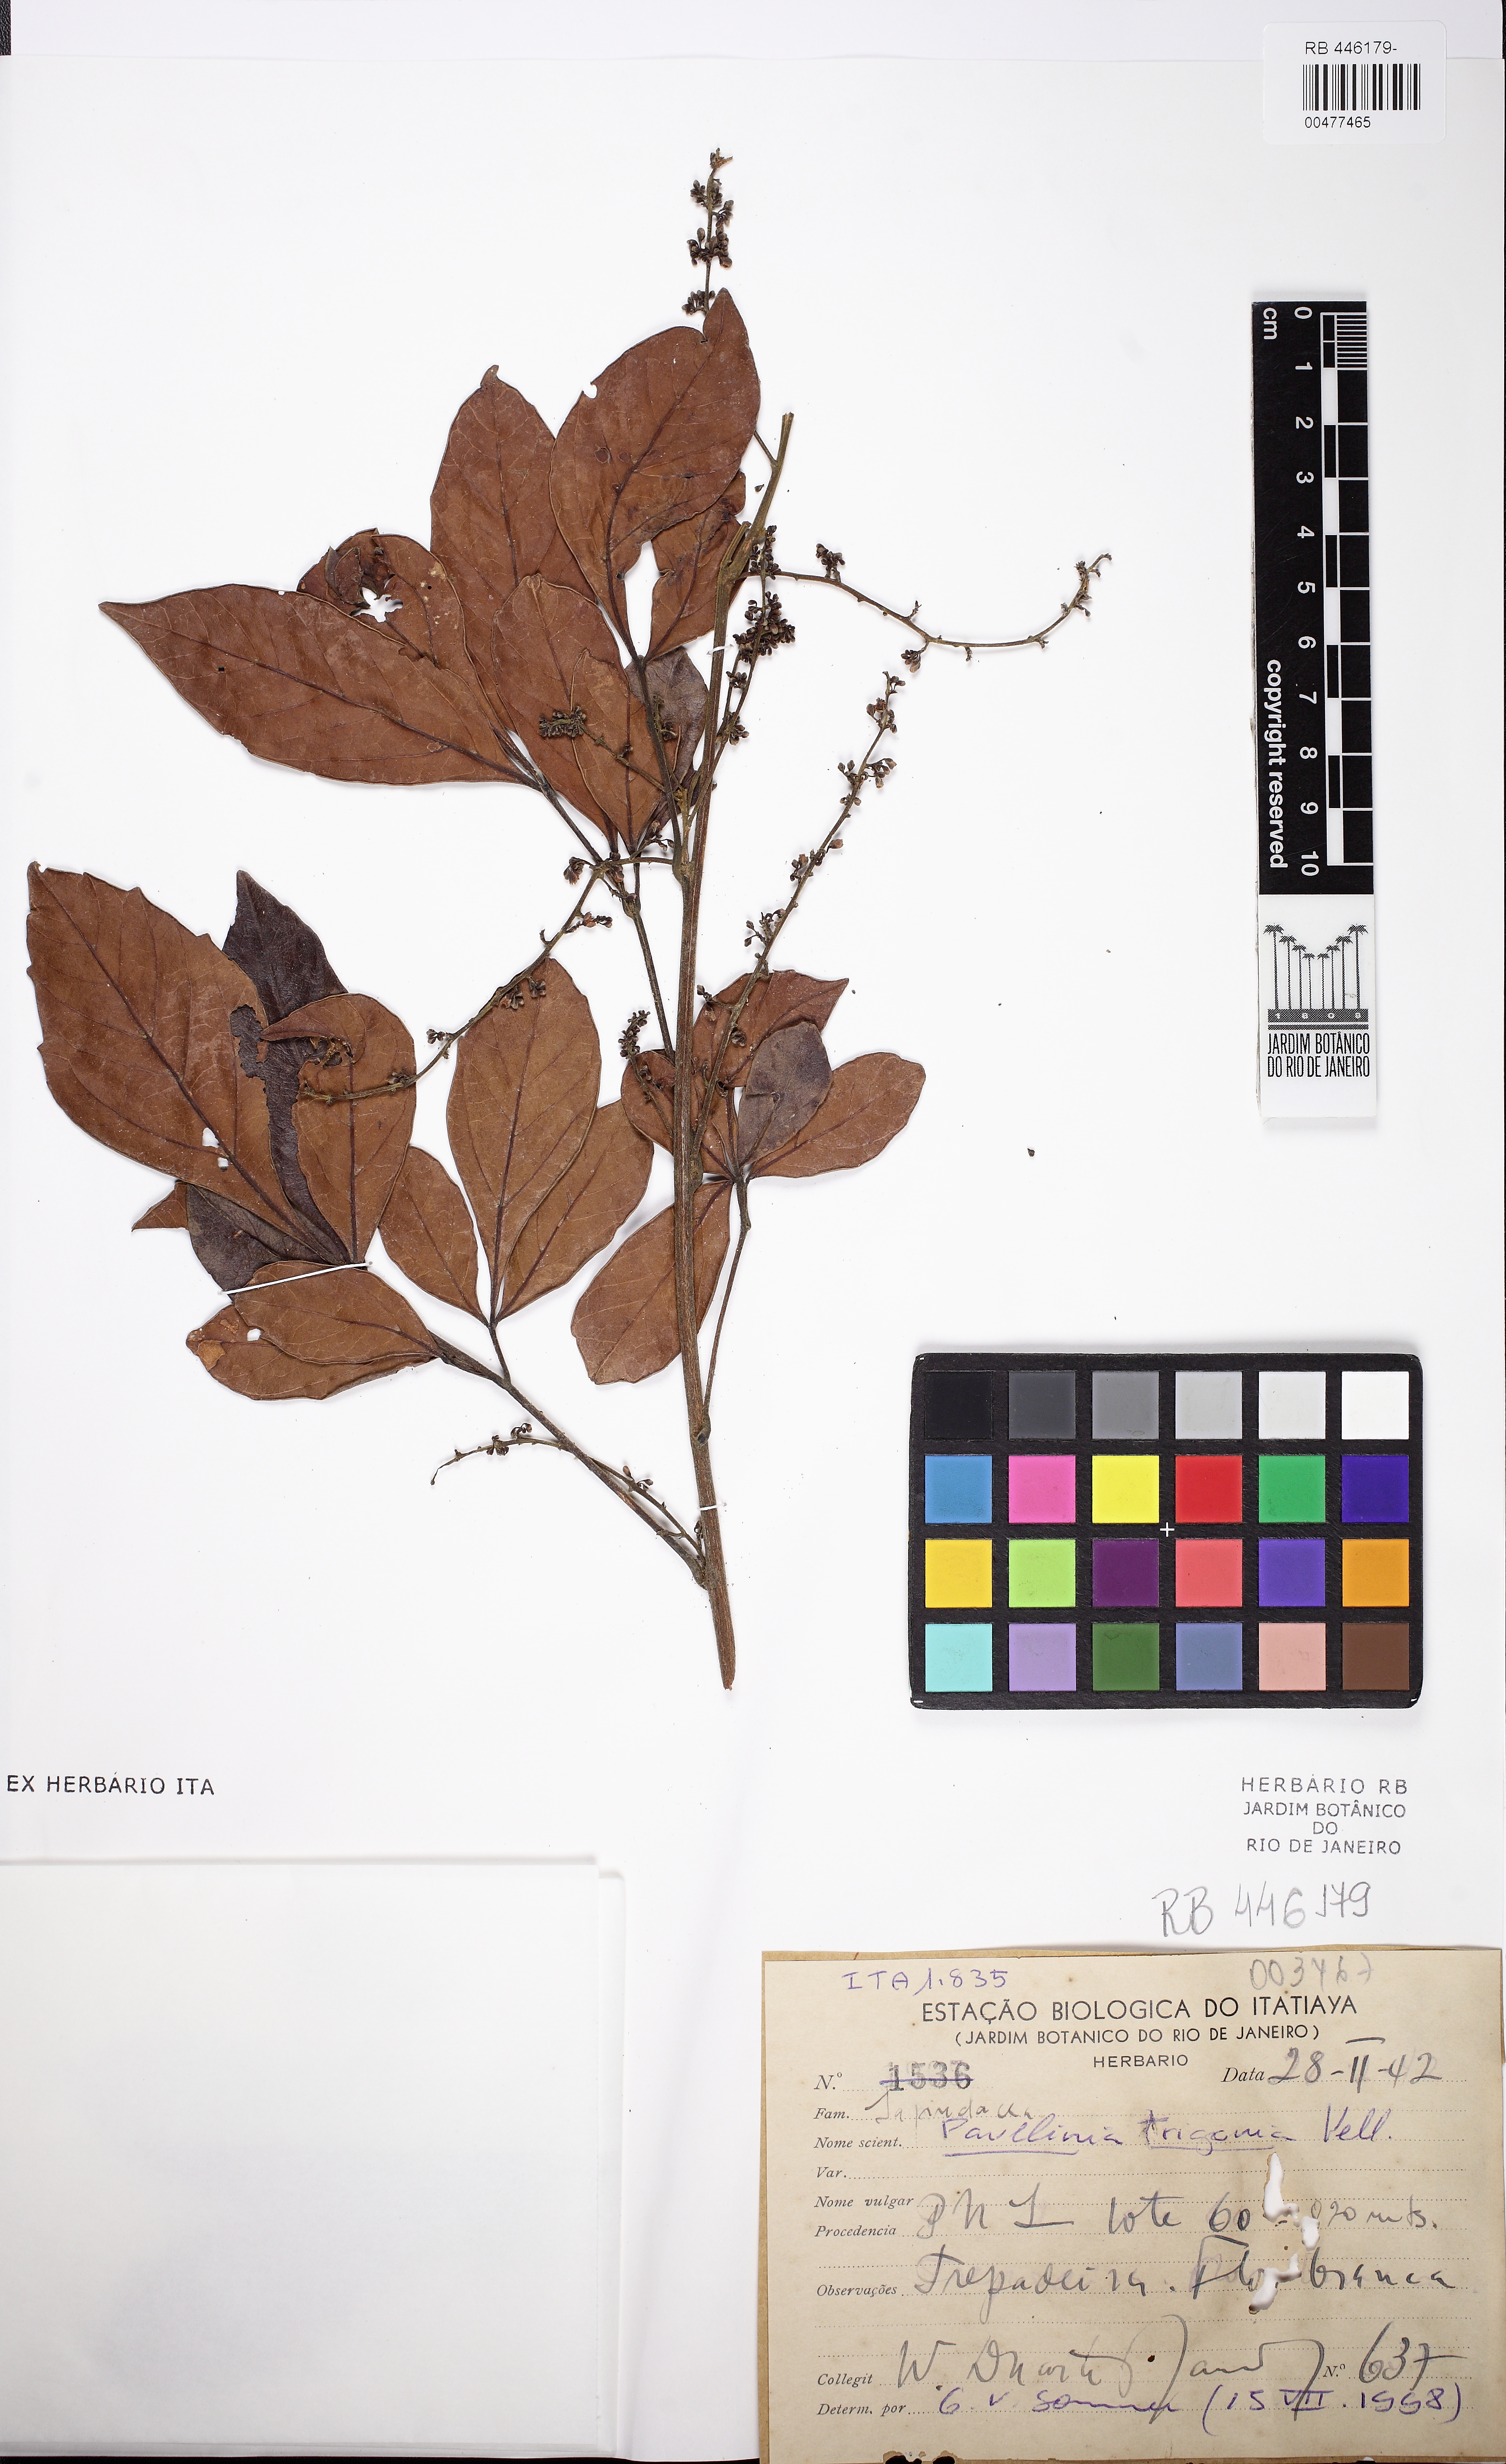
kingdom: Plantae
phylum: Tracheophyta
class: Magnoliopsida
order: Sapindales
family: Sapindaceae
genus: Paullinia
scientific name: Paullinia trigonia
